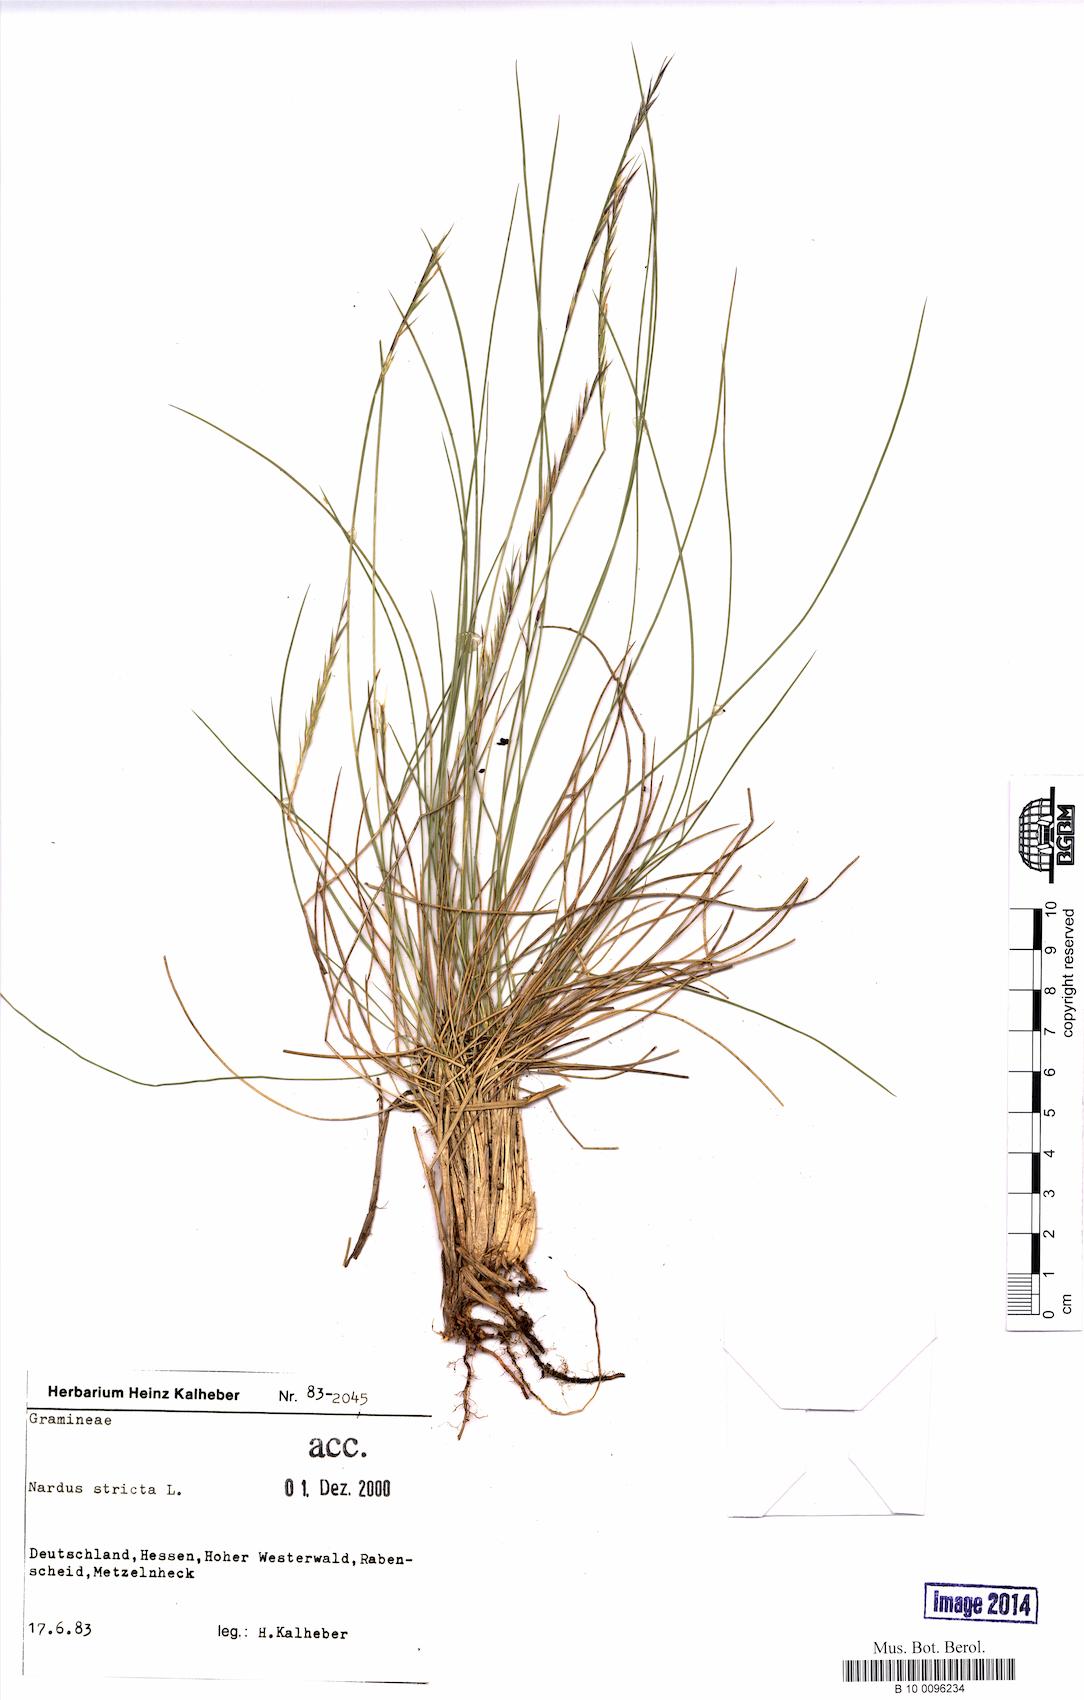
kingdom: Plantae
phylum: Tracheophyta
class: Liliopsida
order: Poales
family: Poaceae
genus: Nardus
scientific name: Nardus stricta
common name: Mat-grass
